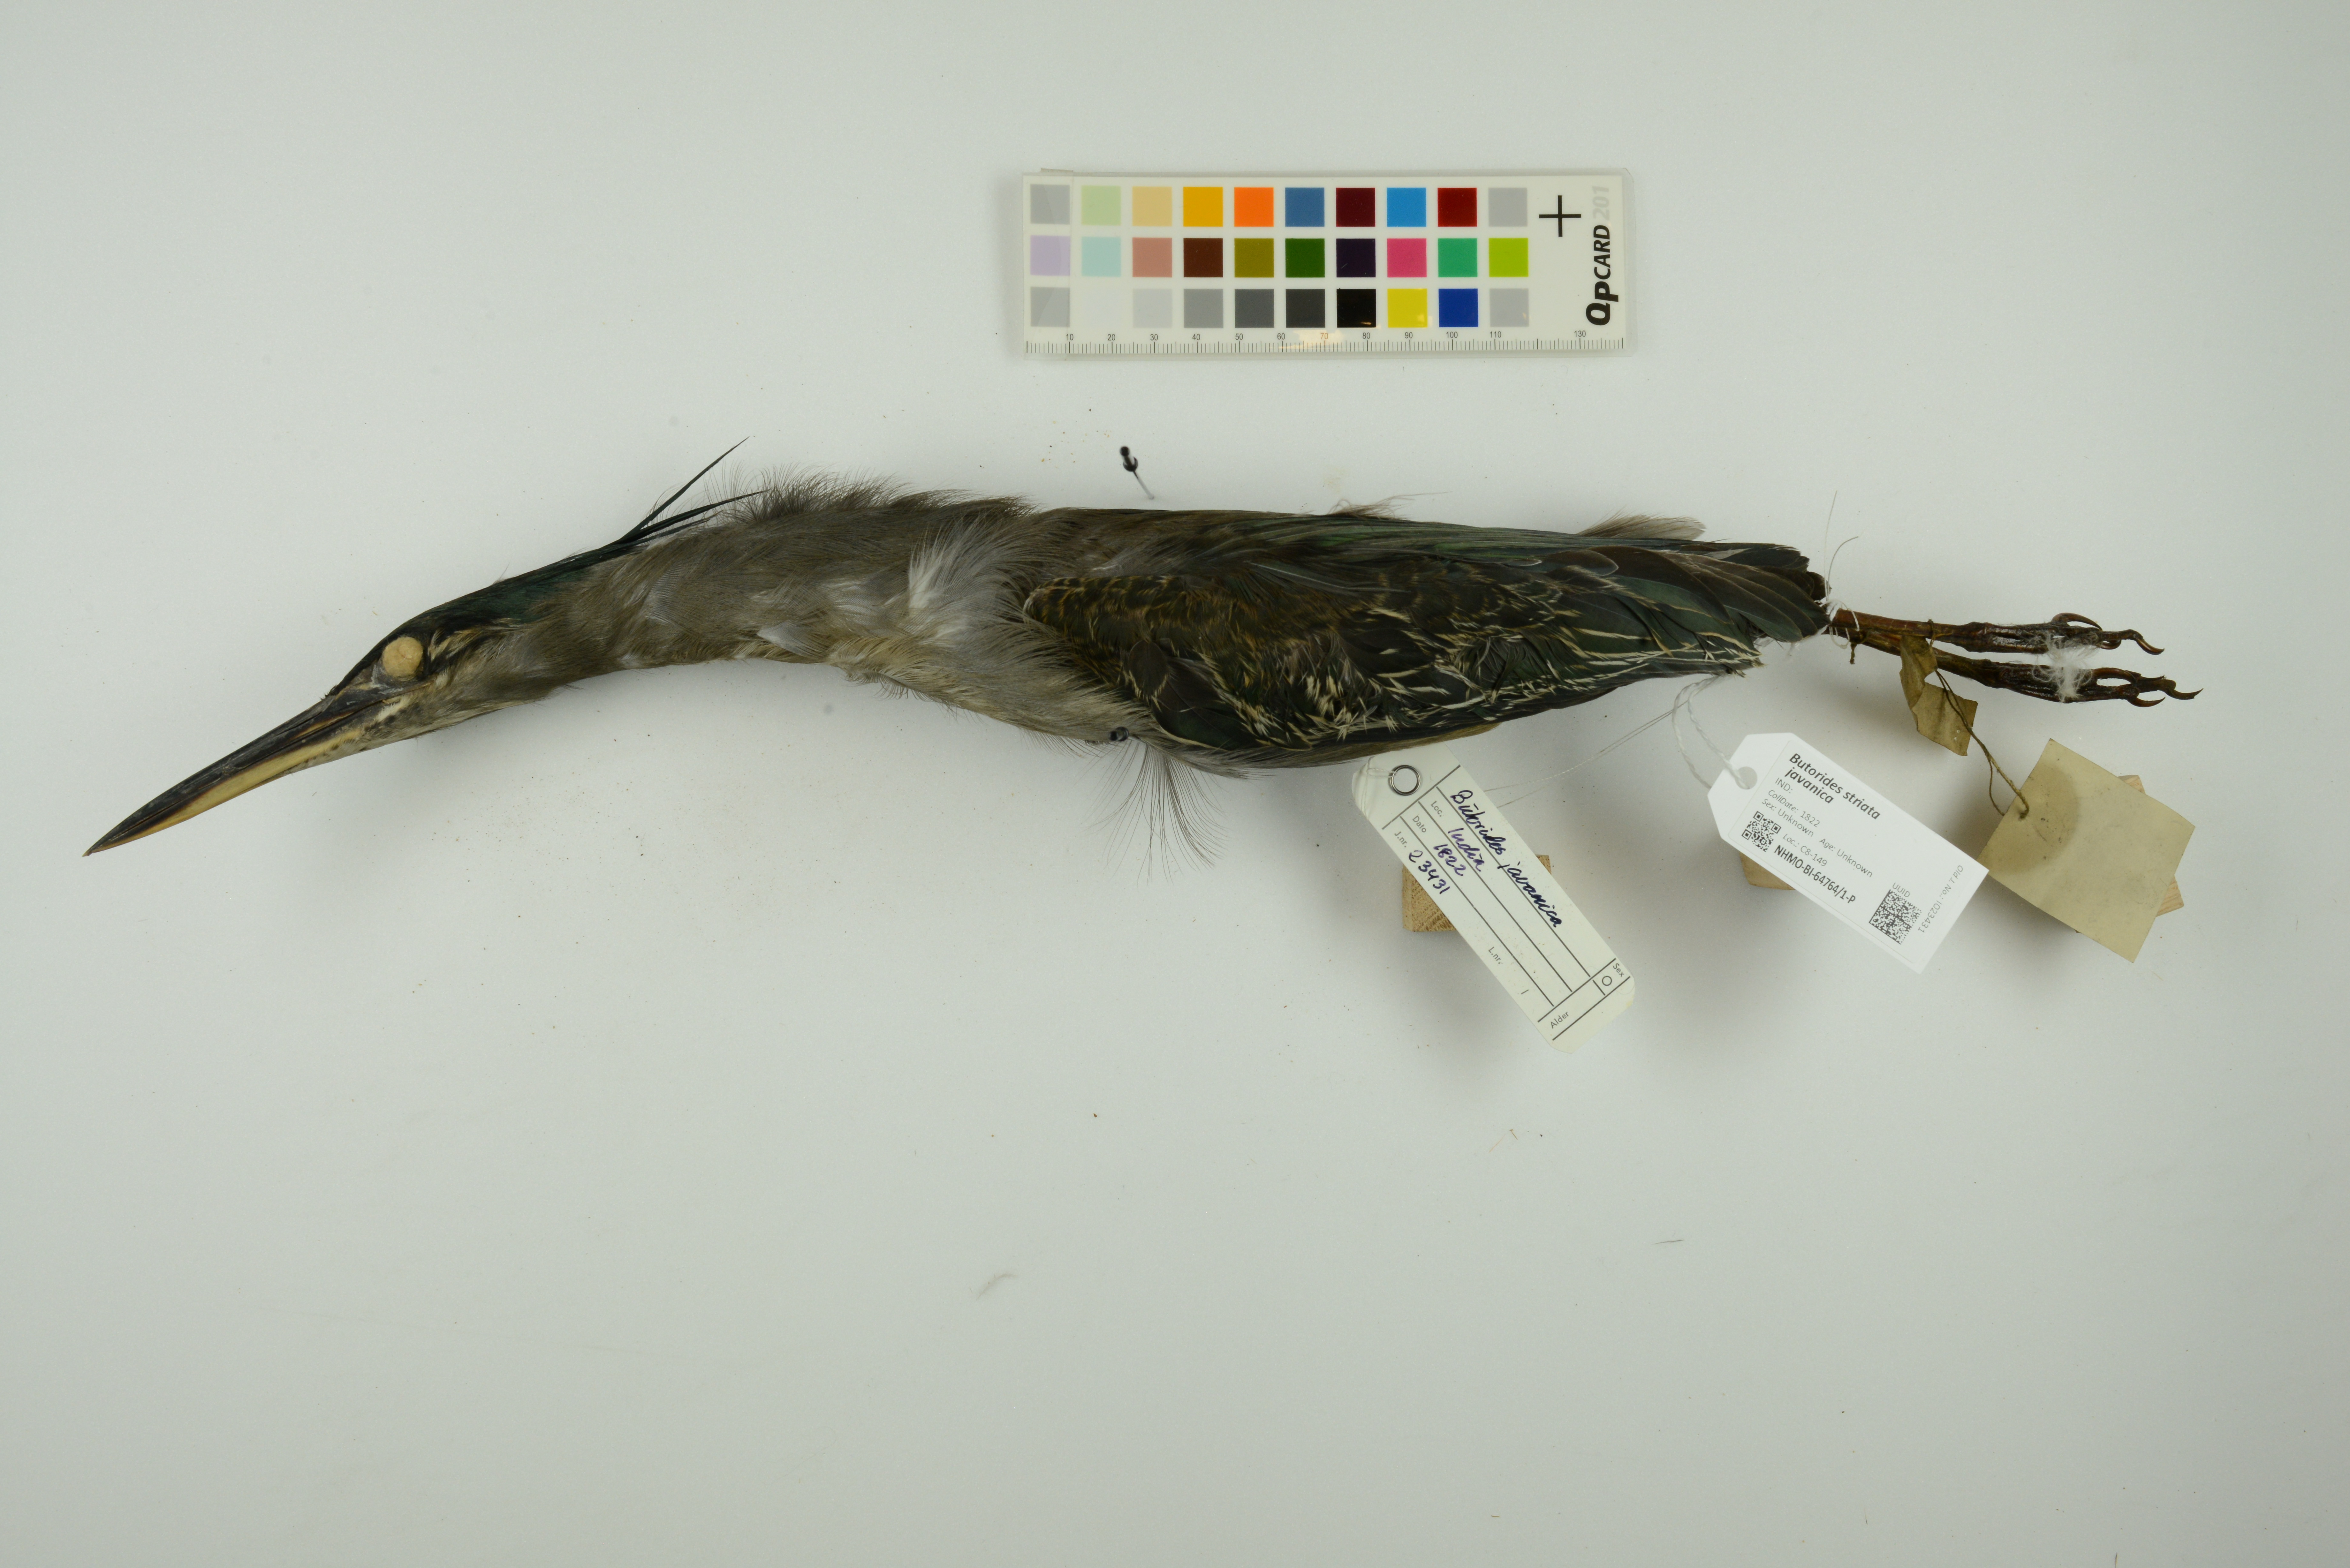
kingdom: Animalia
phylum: Chordata
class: Aves
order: Pelecaniformes
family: Ardeidae
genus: Butorides
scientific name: Butorides striata
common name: Striated heron
